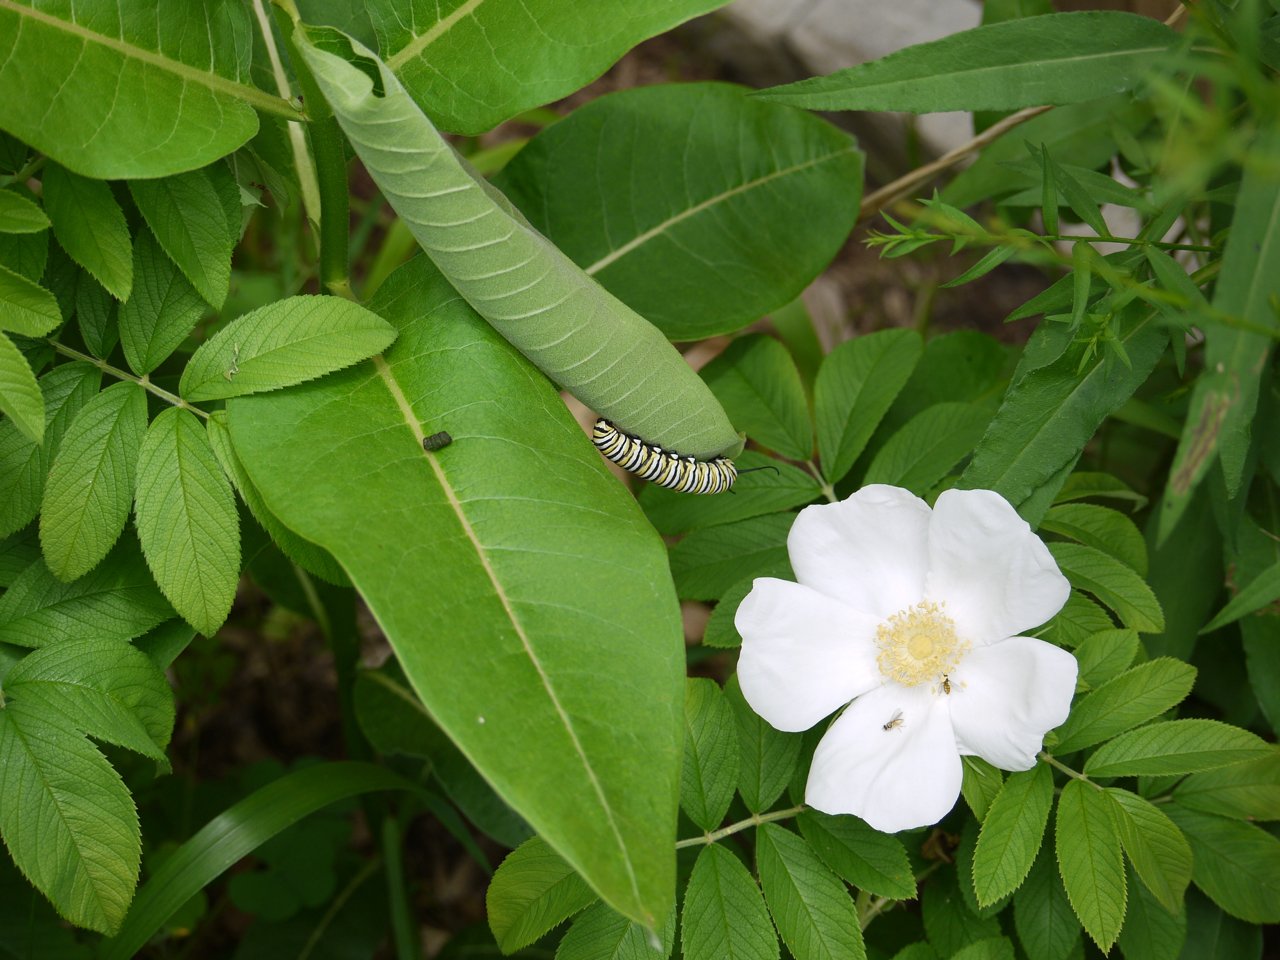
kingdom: Animalia
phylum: Arthropoda
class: Insecta
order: Lepidoptera
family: Nymphalidae
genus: Danaus
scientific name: Danaus plexippus
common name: Monarch
